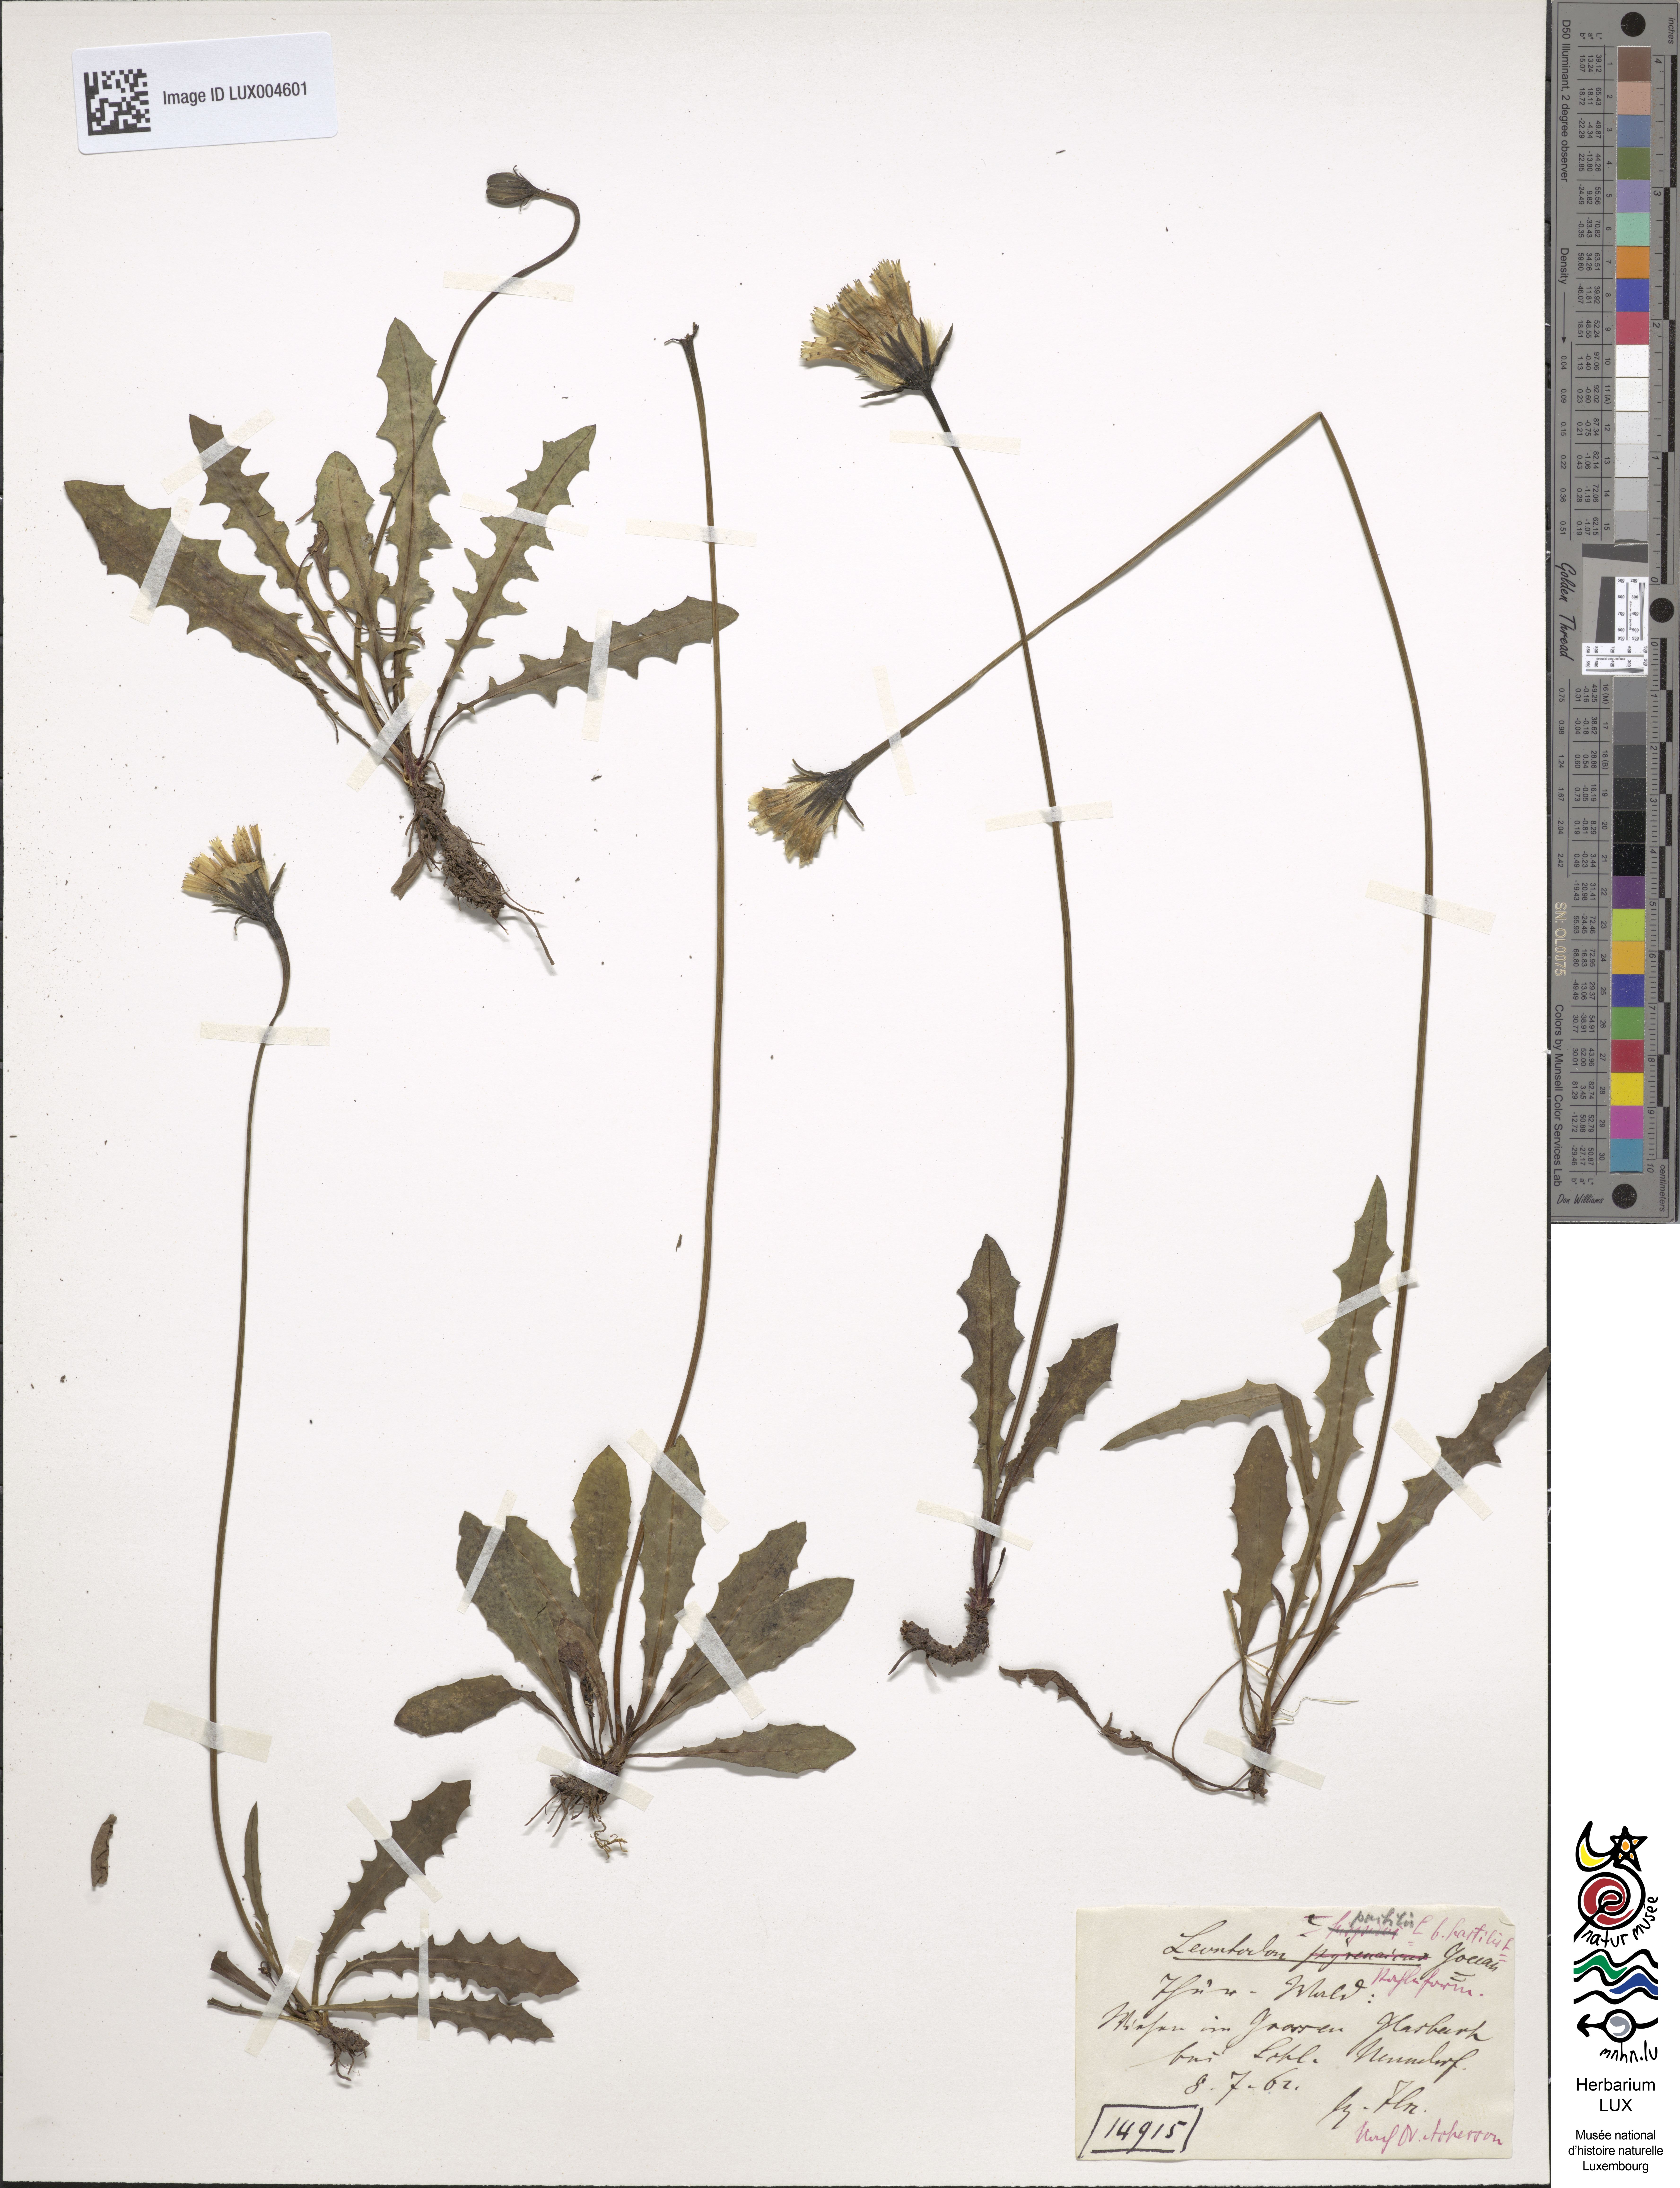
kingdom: Plantae
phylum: Tracheophyta
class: Magnoliopsida
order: Asterales
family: Asteraceae
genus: Leontodon
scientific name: Leontodon hispidus
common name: Rough hawkbit
